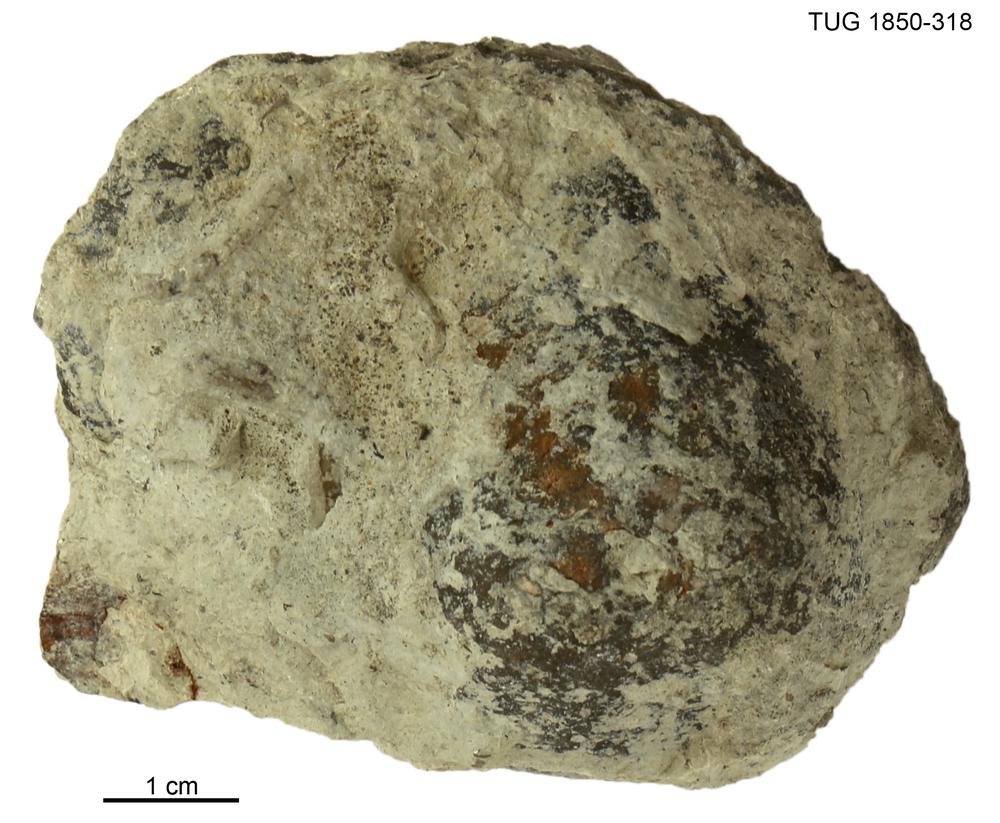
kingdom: Animalia
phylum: Porifera
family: Stromatoporidae
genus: Stromatopora
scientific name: Stromatopora
